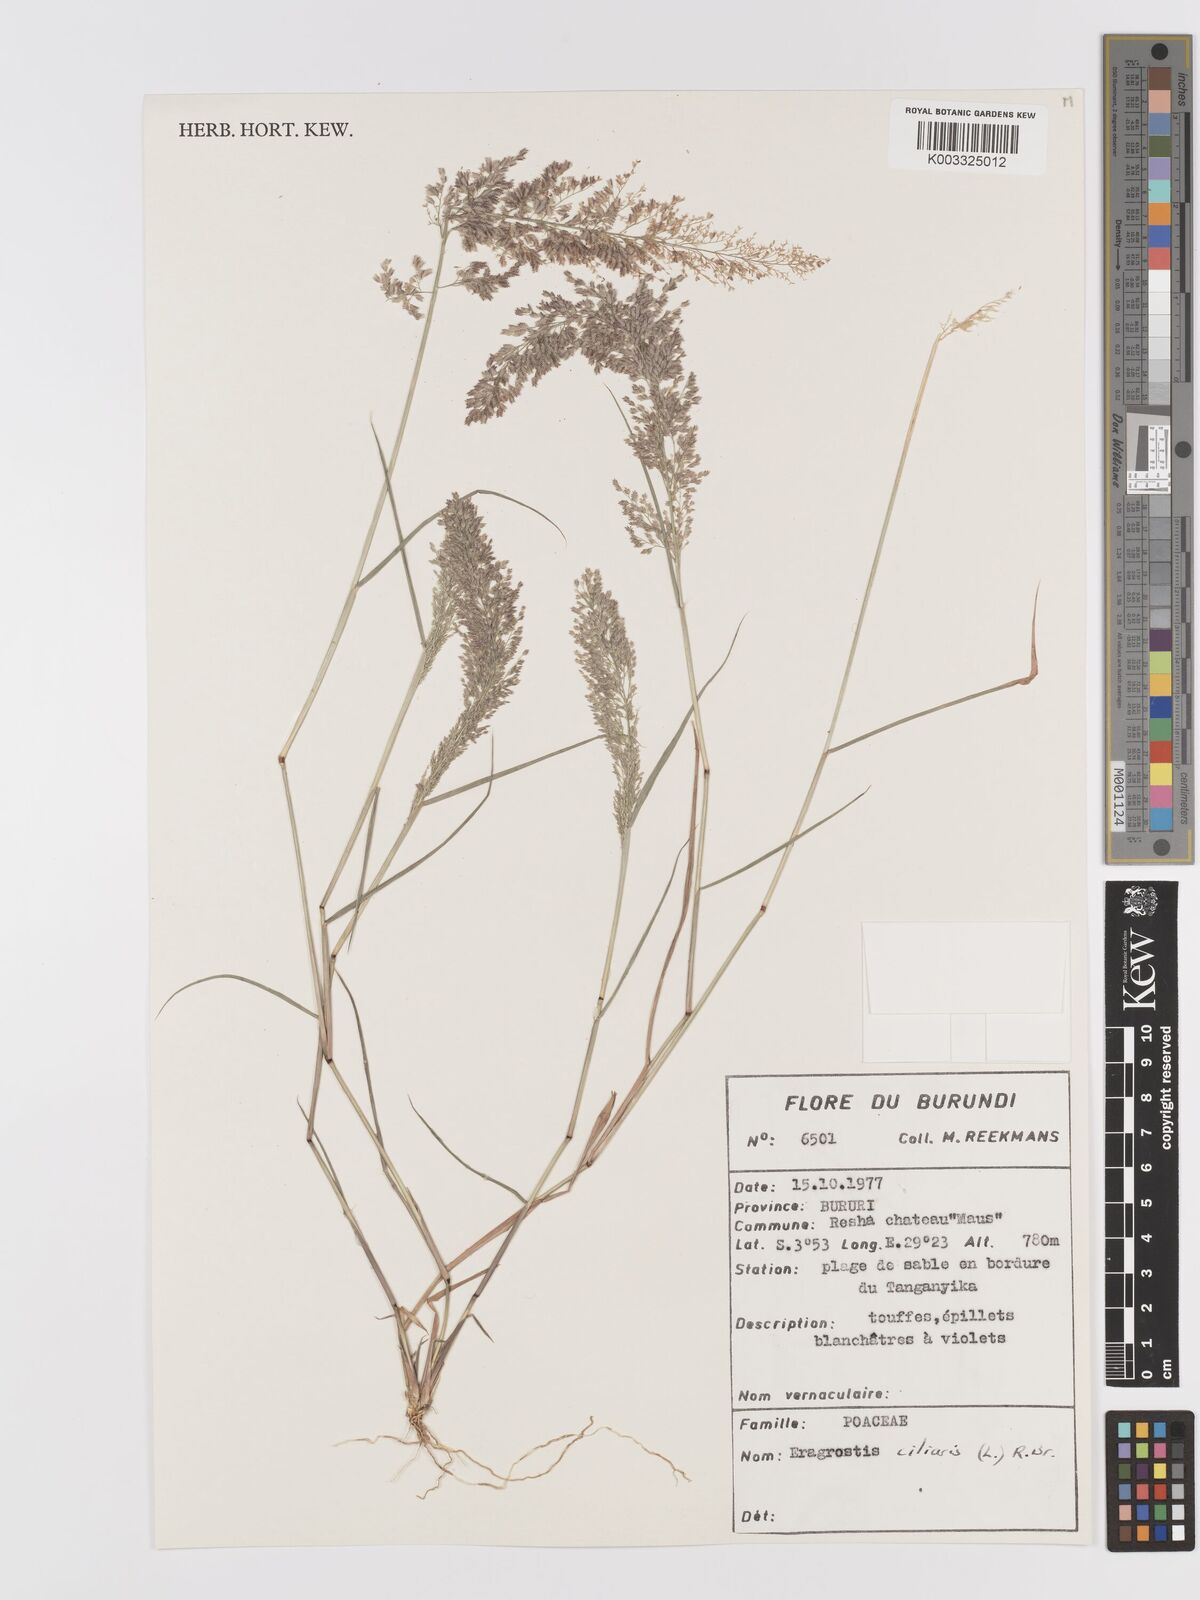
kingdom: Plantae
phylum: Tracheophyta
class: Liliopsida
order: Poales
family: Poaceae
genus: Eragrostis
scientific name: Eragrostis ciliaris
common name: Gophertail lovegrass
